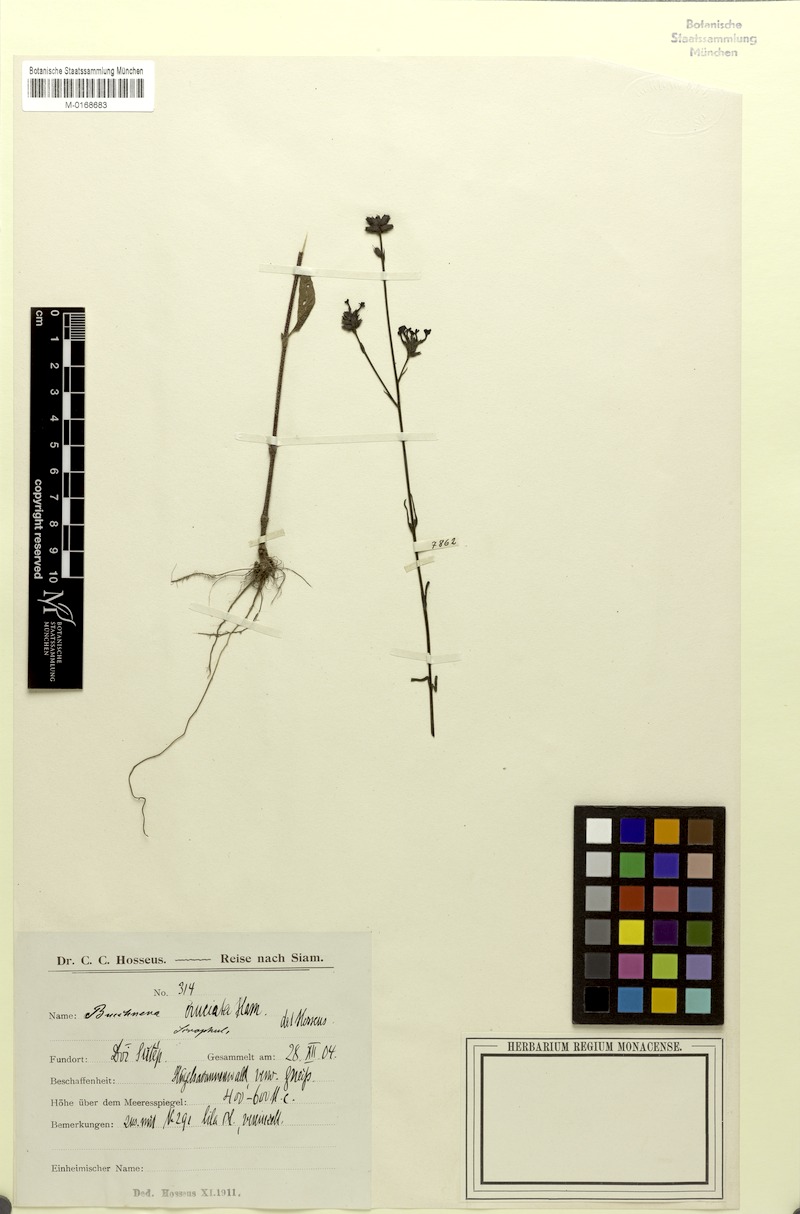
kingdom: Plantae
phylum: Tracheophyta
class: Magnoliopsida
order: Lamiales
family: Orobanchaceae
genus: Buchnera
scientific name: Buchnera cruciata
